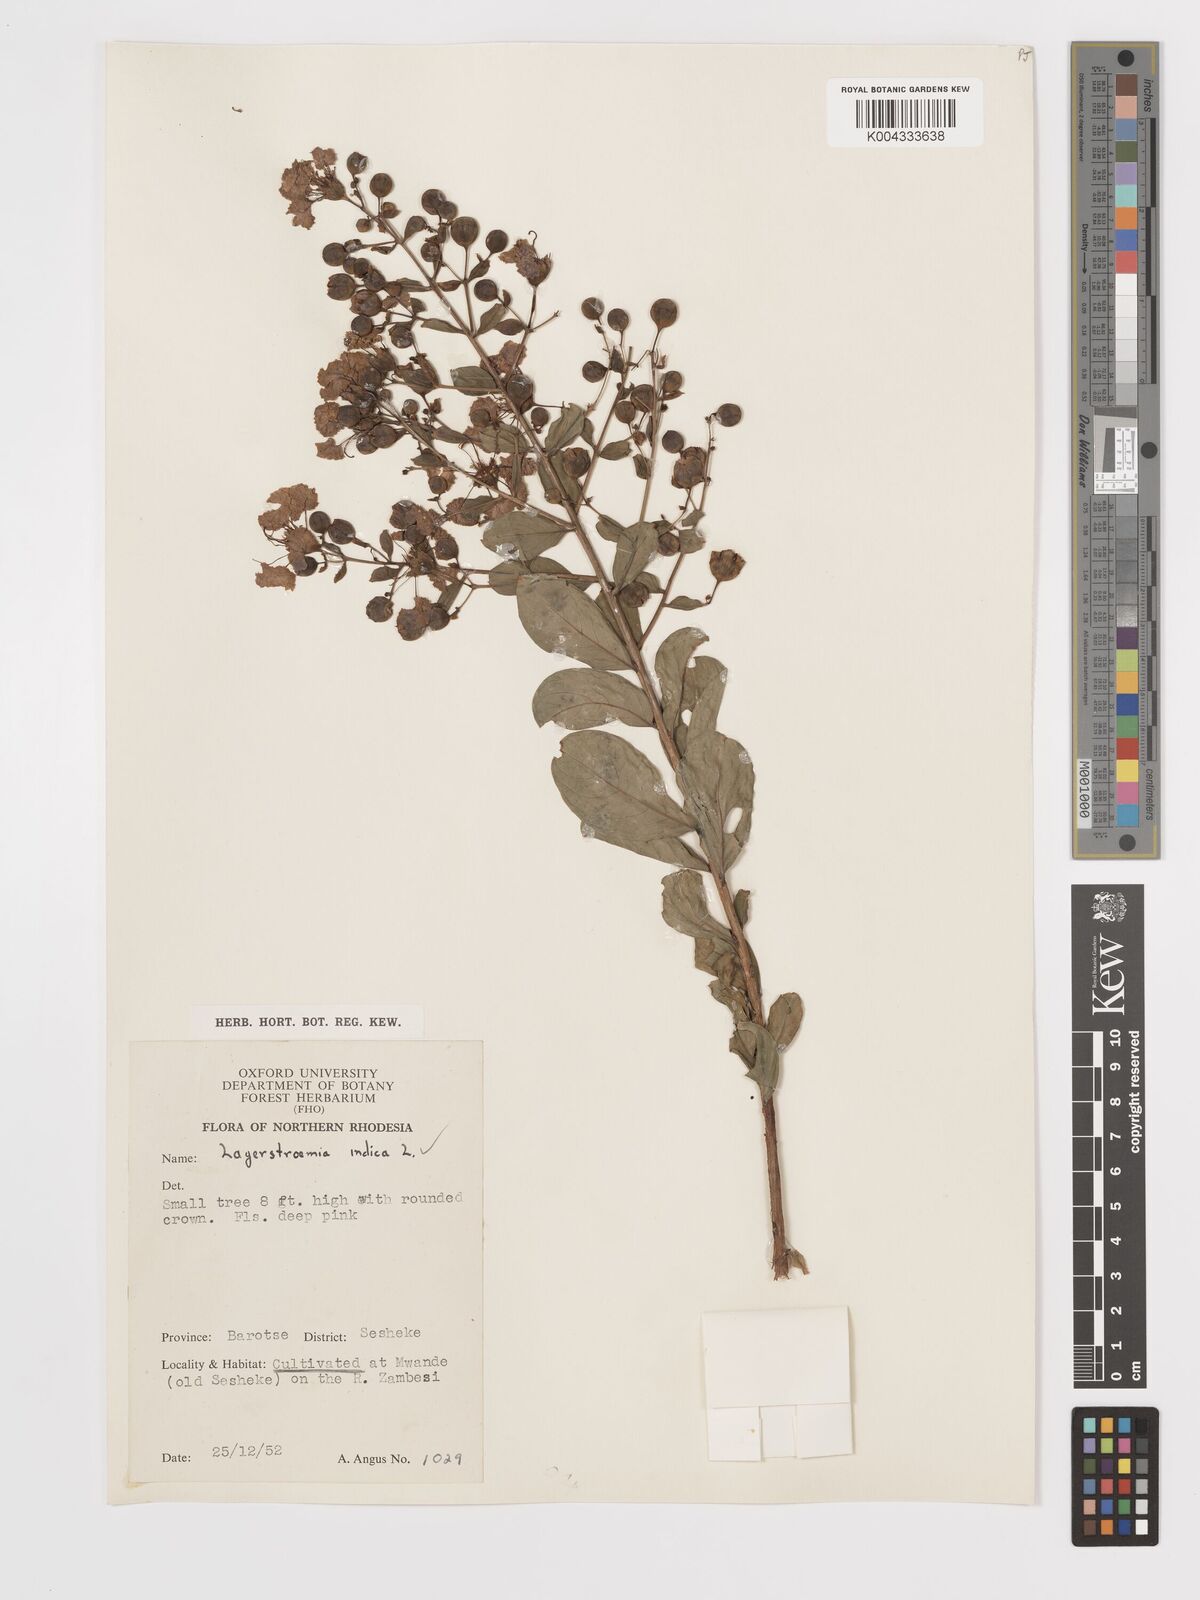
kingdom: Plantae
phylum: Tracheophyta
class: Magnoliopsida
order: Myrtales
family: Lythraceae
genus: Lagerstroemia
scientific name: Lagerstroemia indica
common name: Crape-myrtle
